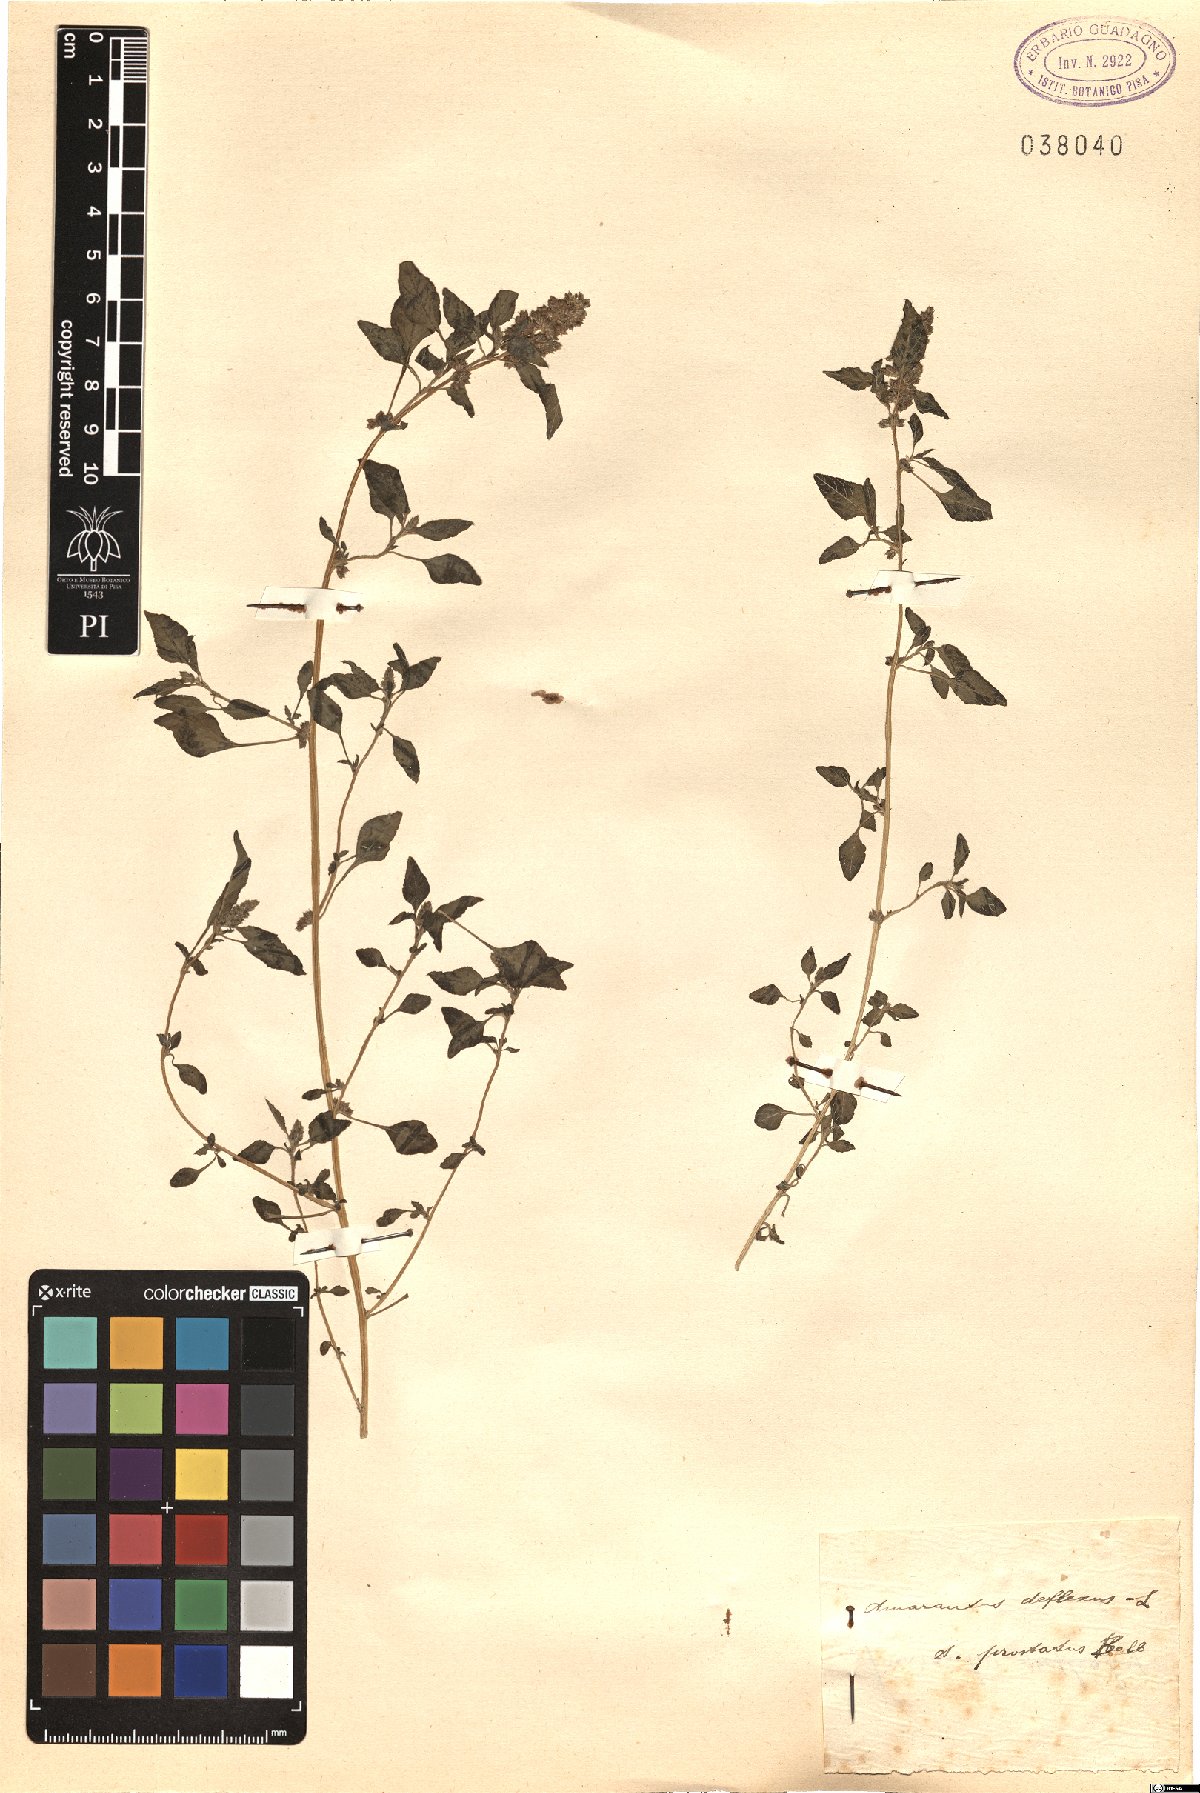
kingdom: Plantae
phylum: Tracheophyta
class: Magnoliopsida
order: Caryophyllales
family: Amaranthaceae
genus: Amaranthus
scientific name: Amaranthus deflexus
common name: Perennial pigweed
